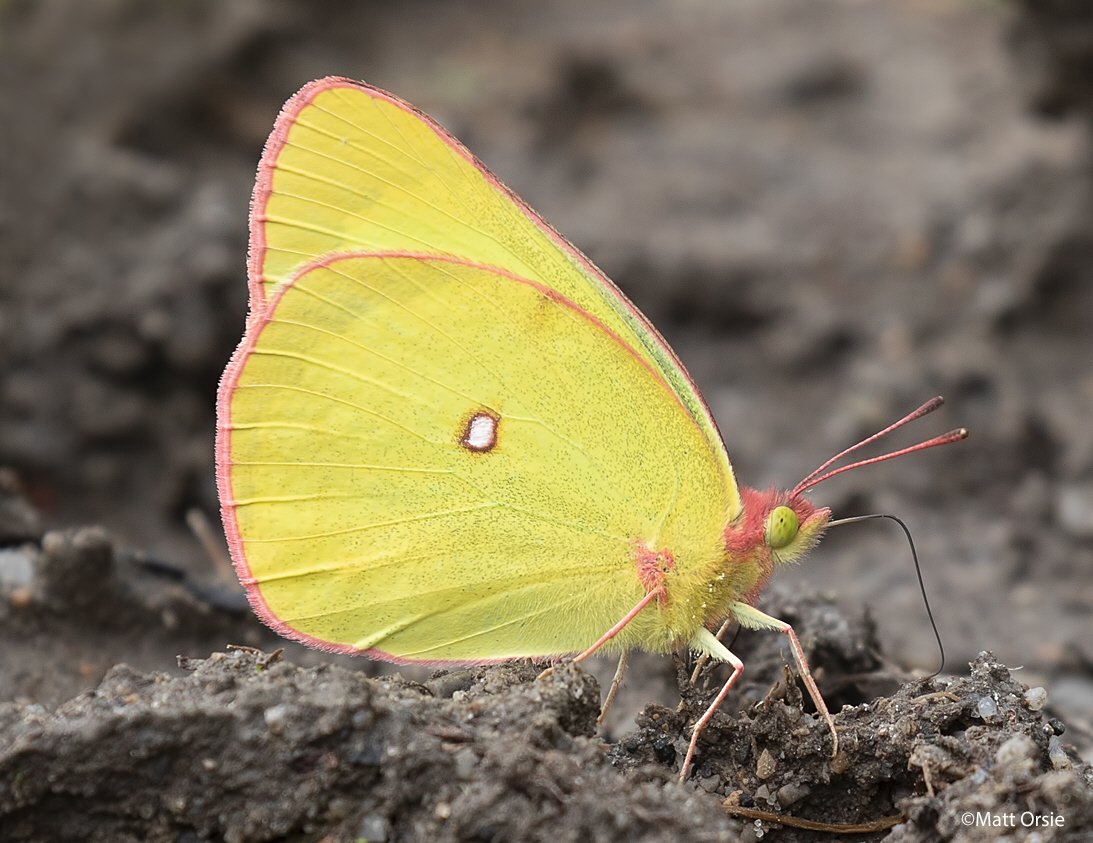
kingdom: Animalia
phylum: Arthropoda
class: Insecta
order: Lepidoptera
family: Pieridae
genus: Colias
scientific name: Colias interior
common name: Pink-edged Sulphur
